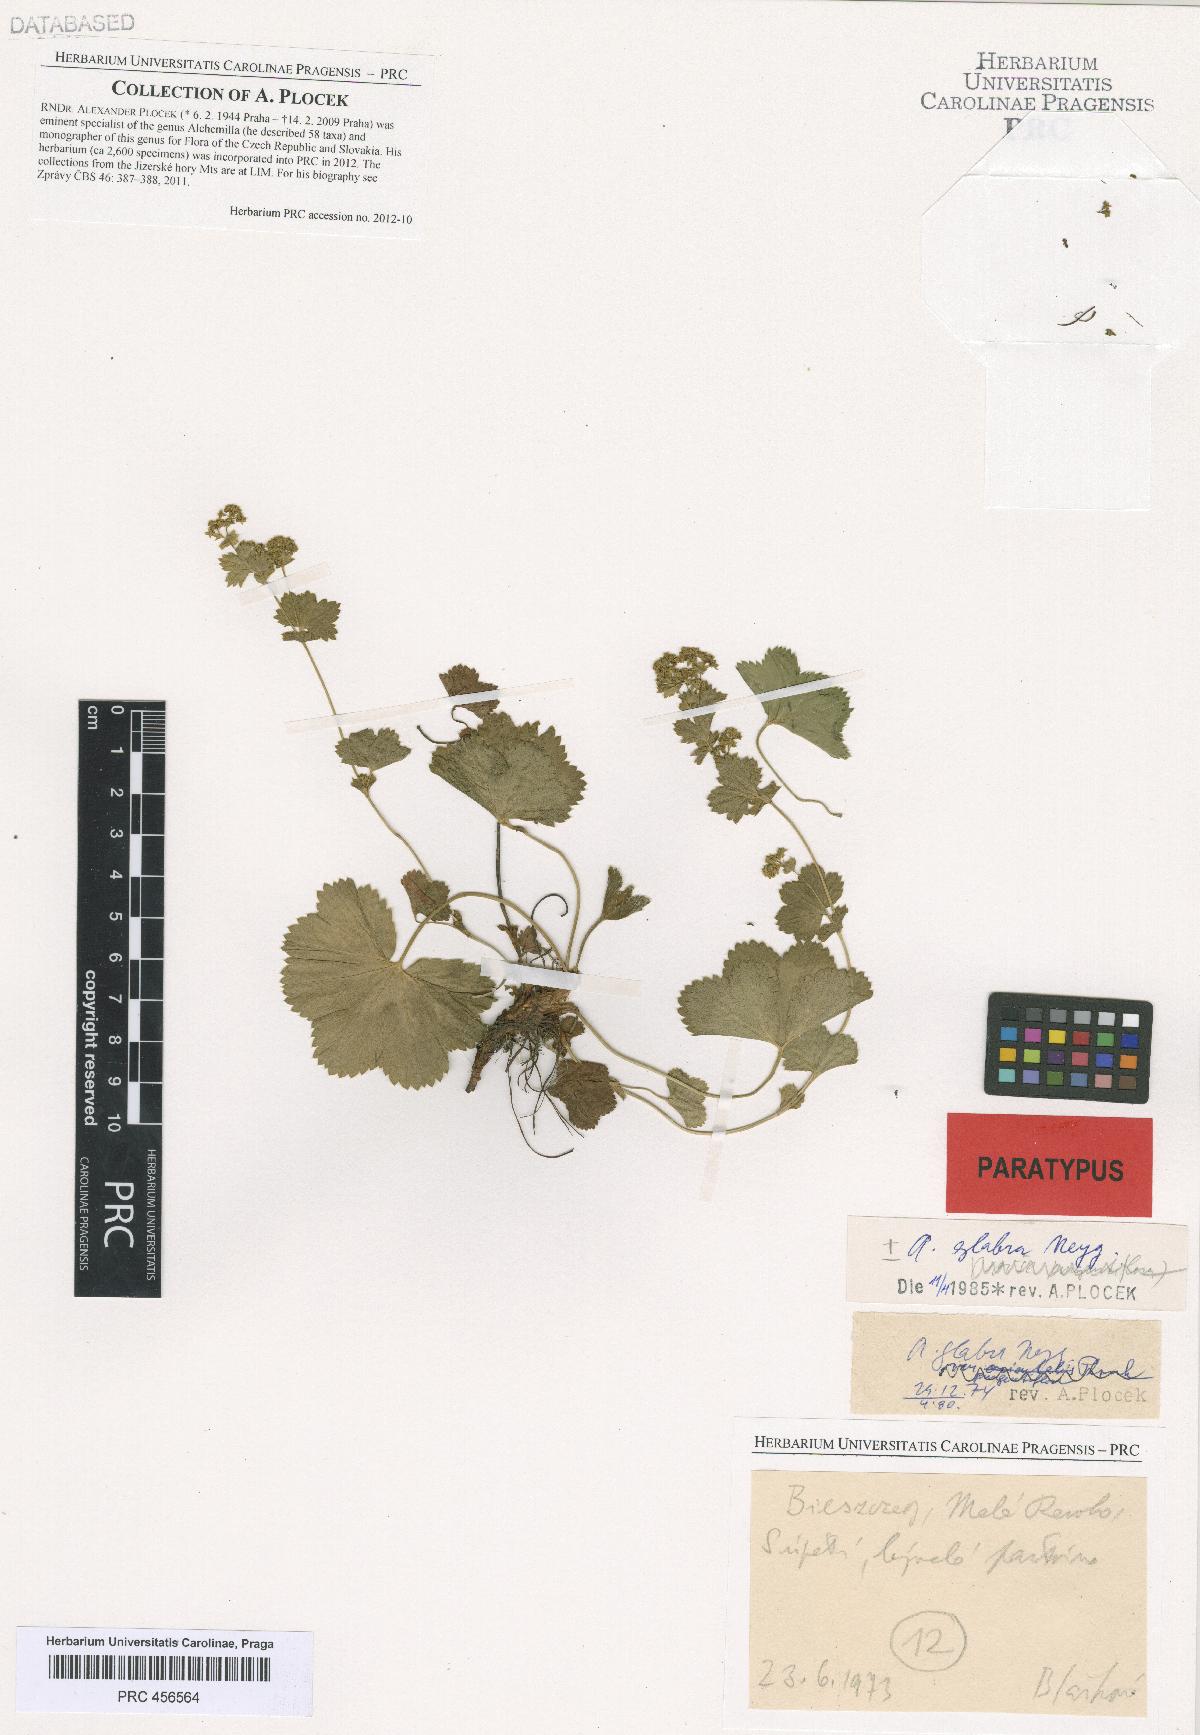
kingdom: Plantae
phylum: Tracheophyta
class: Magnoliopsida
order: Rosales
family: Rosaceae
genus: Alchemilla
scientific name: Alchemilla glabra
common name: Smooth lady's-mantle
